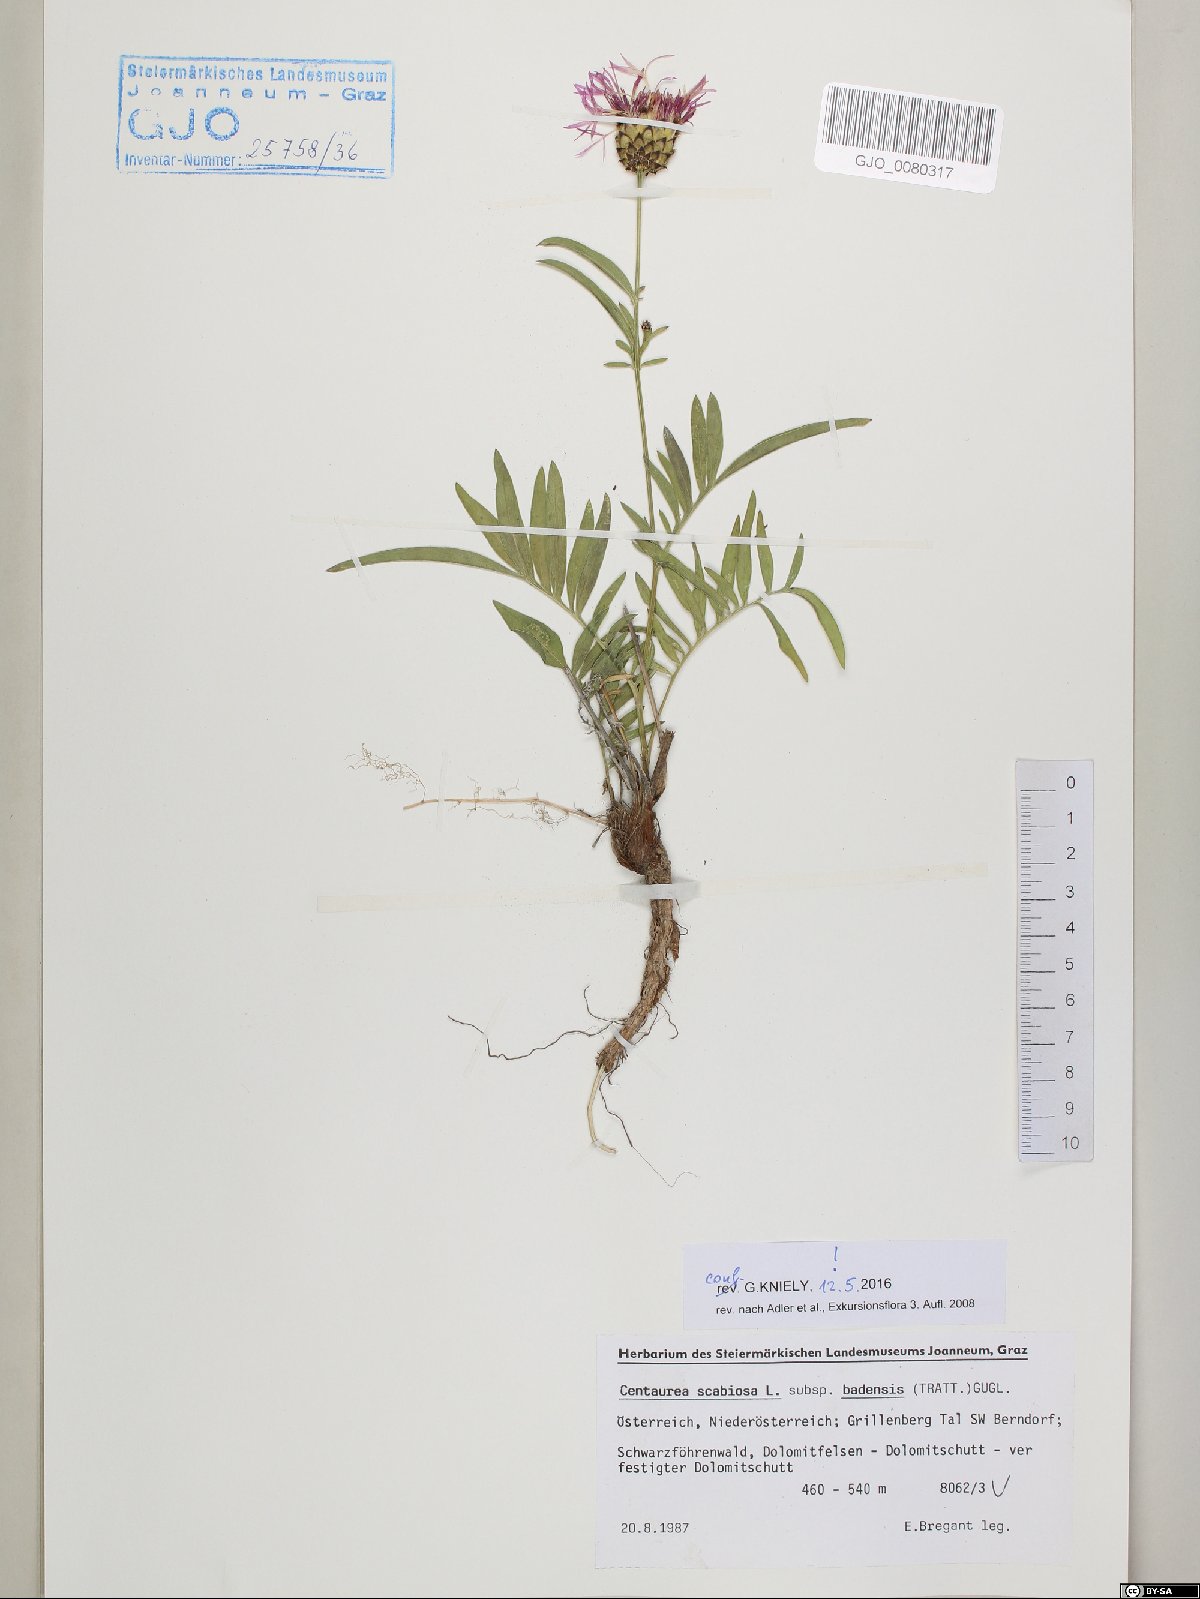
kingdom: Plantae
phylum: Tracheophyta
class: Magnoliopsida
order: Asterales
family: Asteraceae
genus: Centaurea
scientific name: Centaurea scabiosa
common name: Greater knapweed
